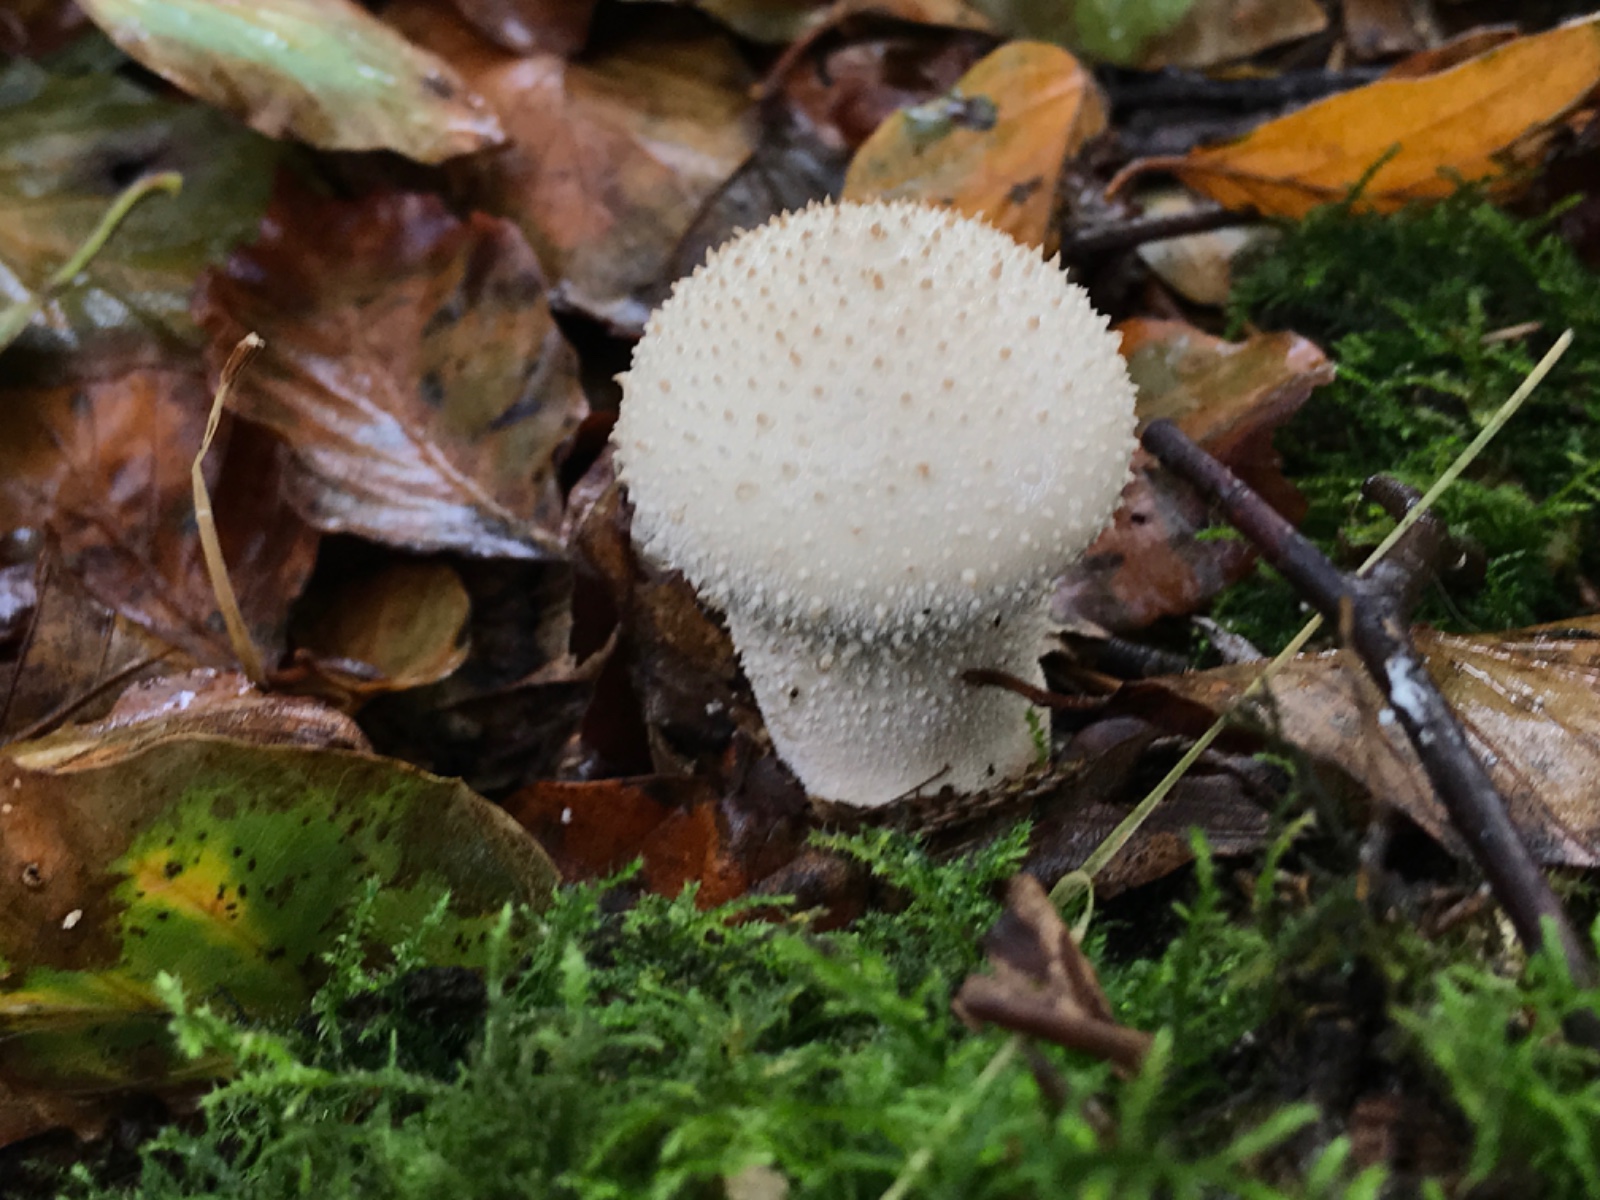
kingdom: Fungi
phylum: Basidiomycota
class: Agaricomycetes
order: Agaricales
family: Lycoperdaceae
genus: Lycoperdon
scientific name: Lycoperdon perlatum
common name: krystal-støvbold
